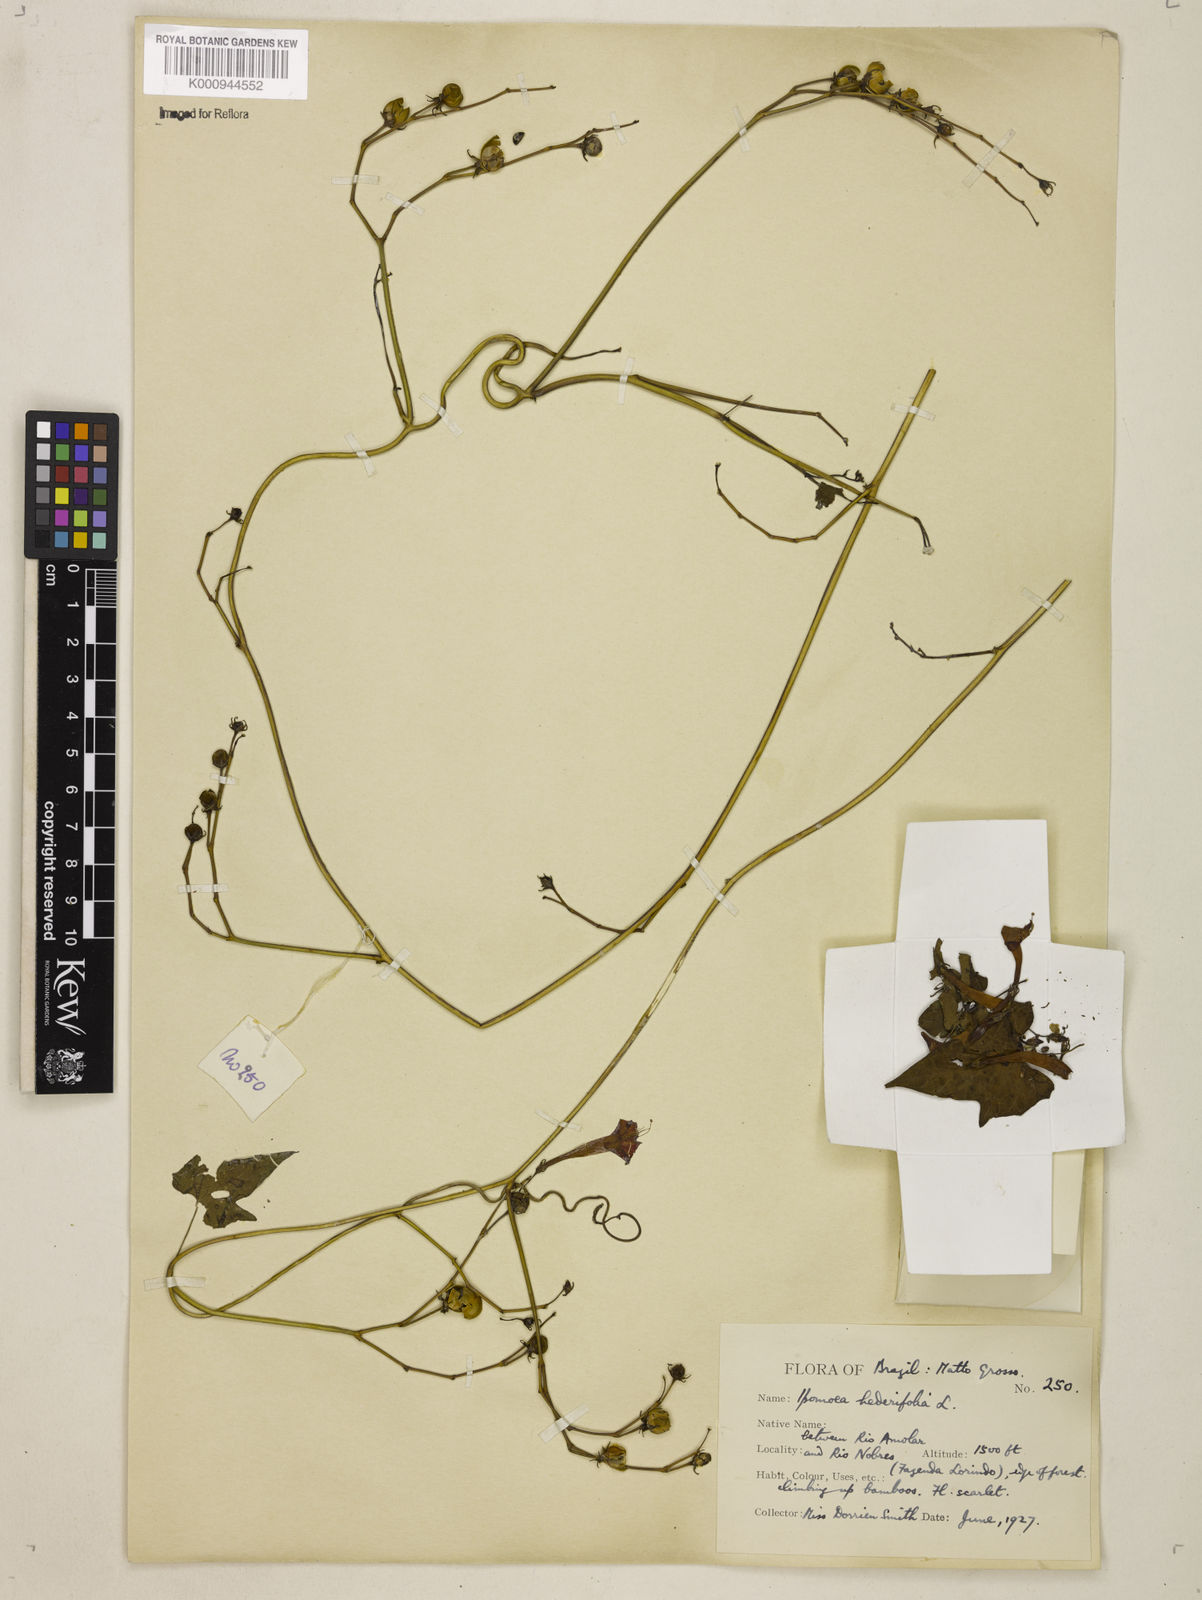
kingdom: Plantae
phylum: Tracheophyta
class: Magnoliopsida
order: Solanales
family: Convolvulaceae
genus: Ipomoea
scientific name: Ipomoea hederifolia
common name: Ivy-leaf morning-glory
